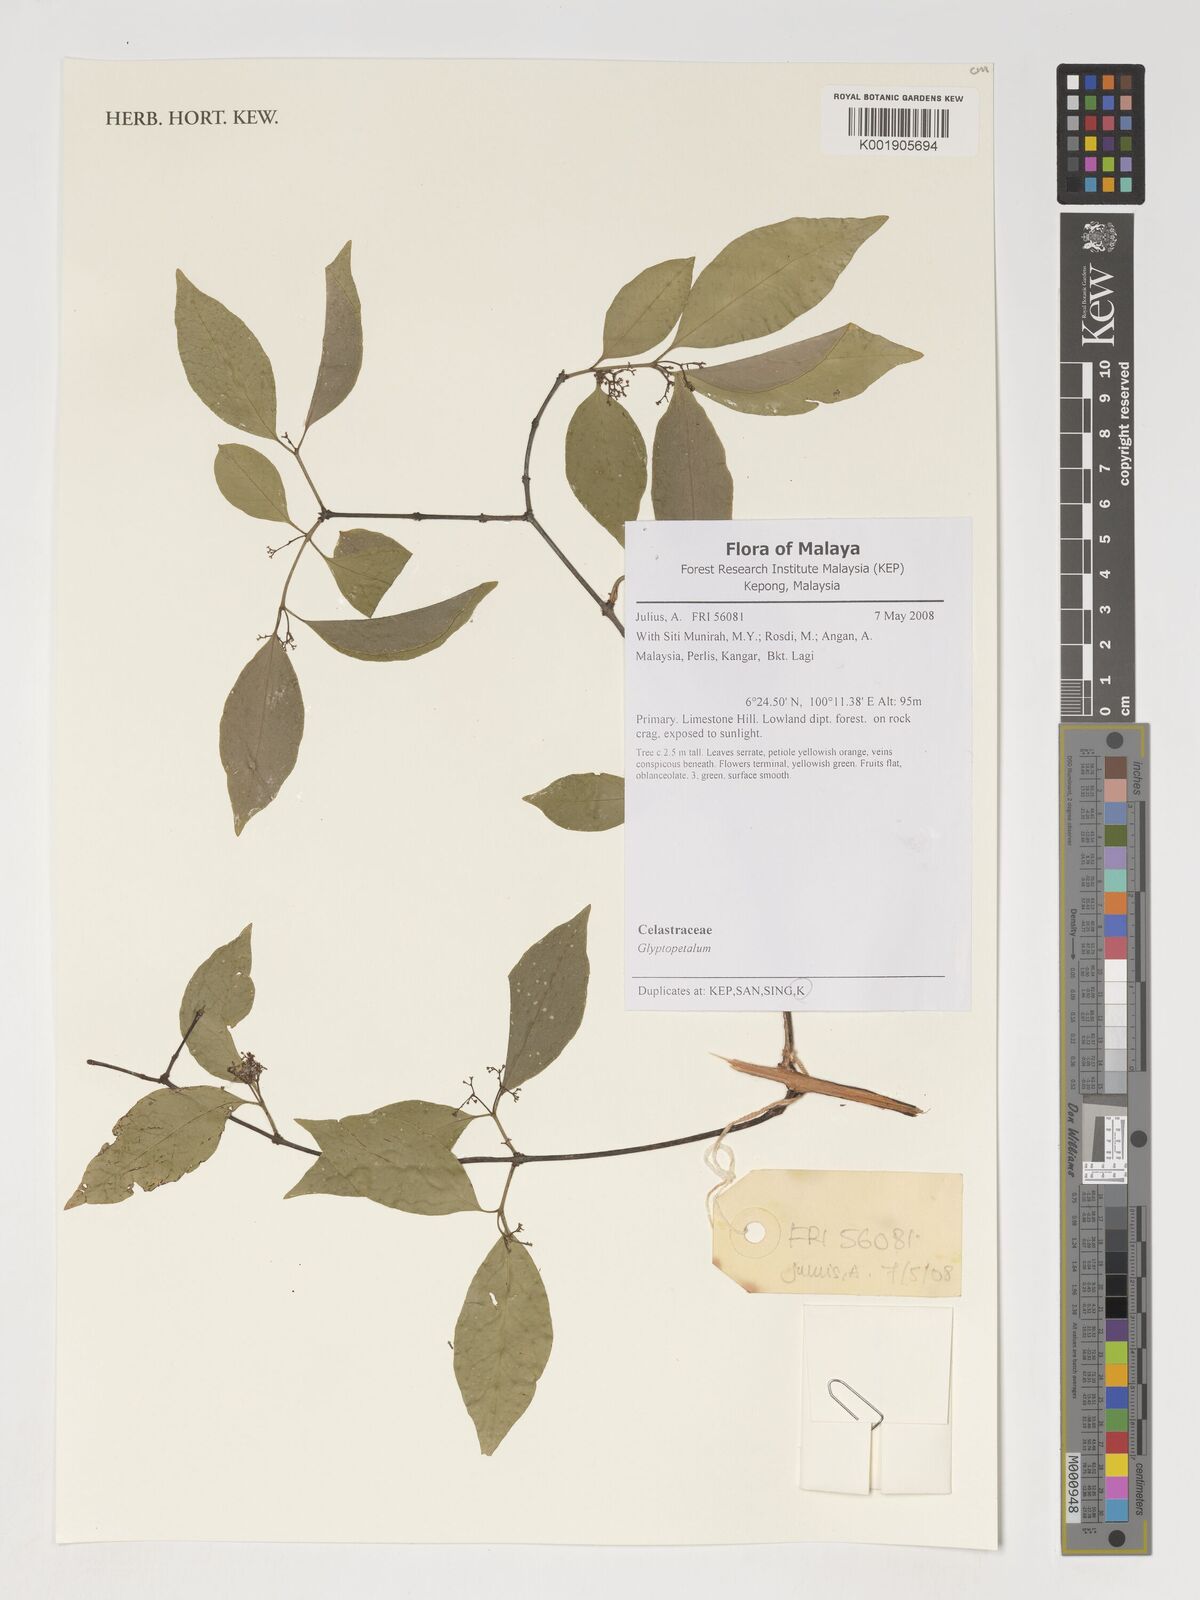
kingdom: Plantae
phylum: Tracheophyta
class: Magnoliopsida
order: Celastrales
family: Celastraceae
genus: Glyptopetalum
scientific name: Glyptopetalum
